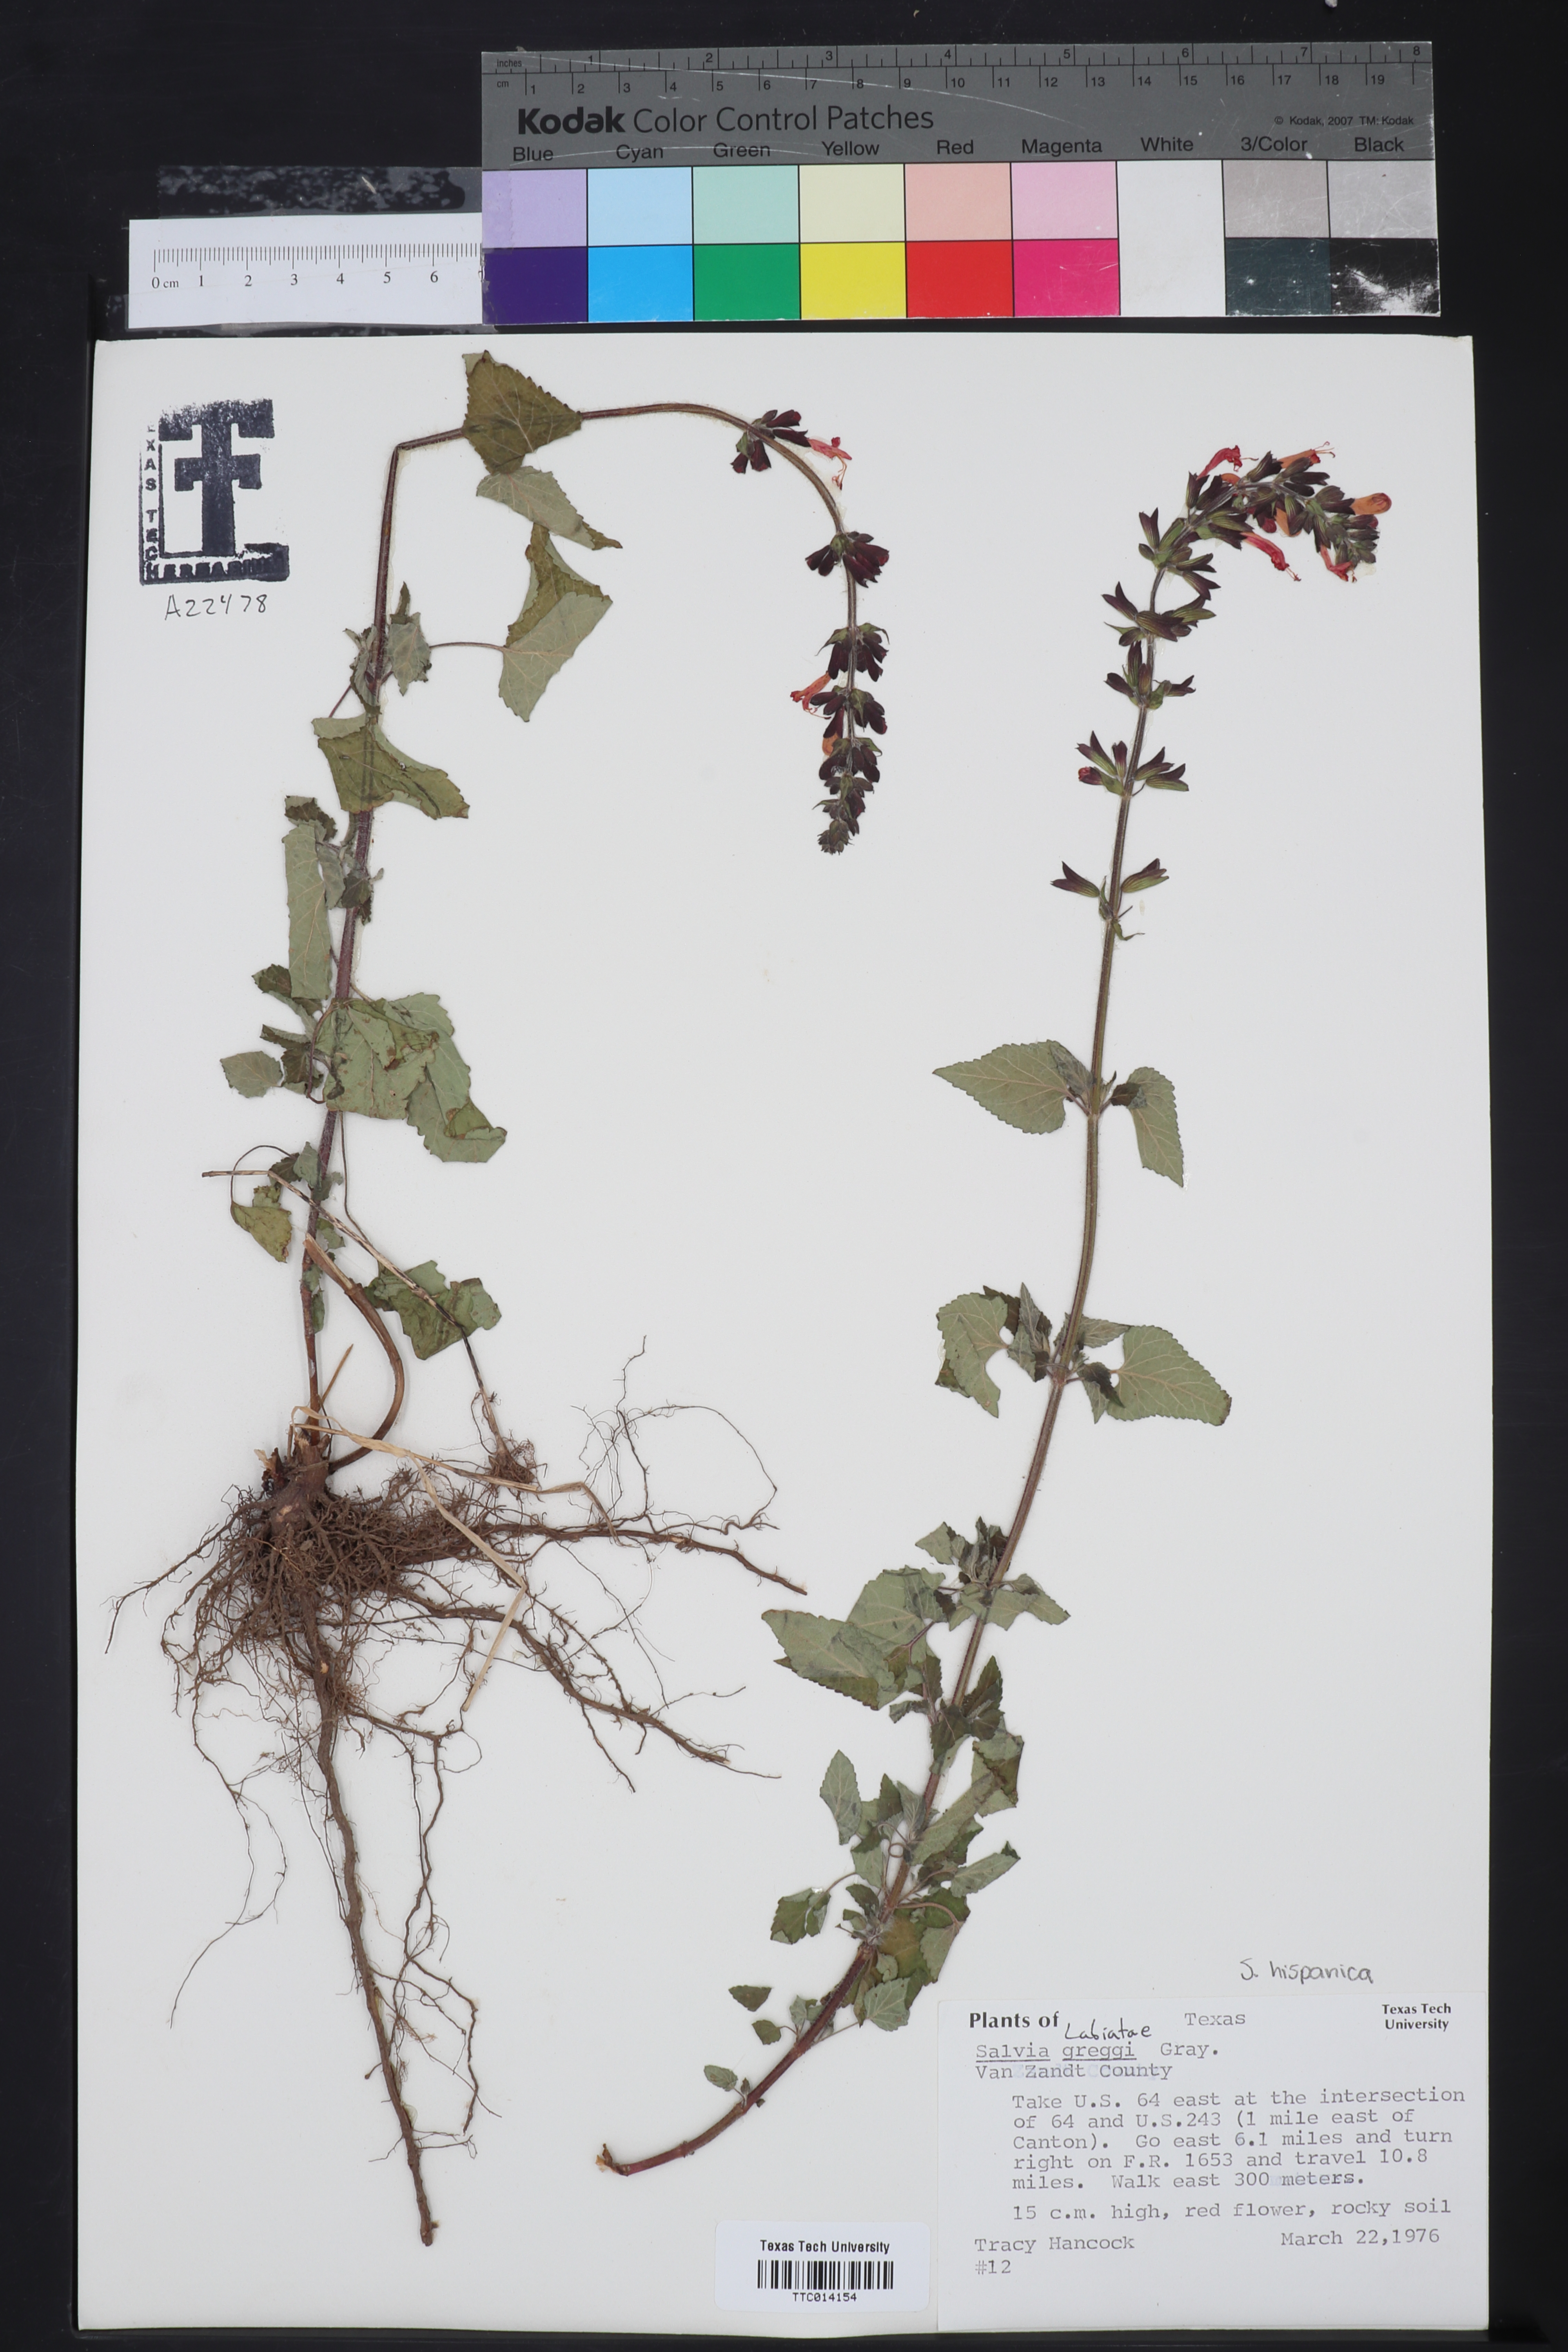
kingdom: Plantae
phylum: Tracheophyta
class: Magnoliopsida
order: Lamiales
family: Lamiaceae
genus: Salvia
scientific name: Salvia greggii
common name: Autumn sage
